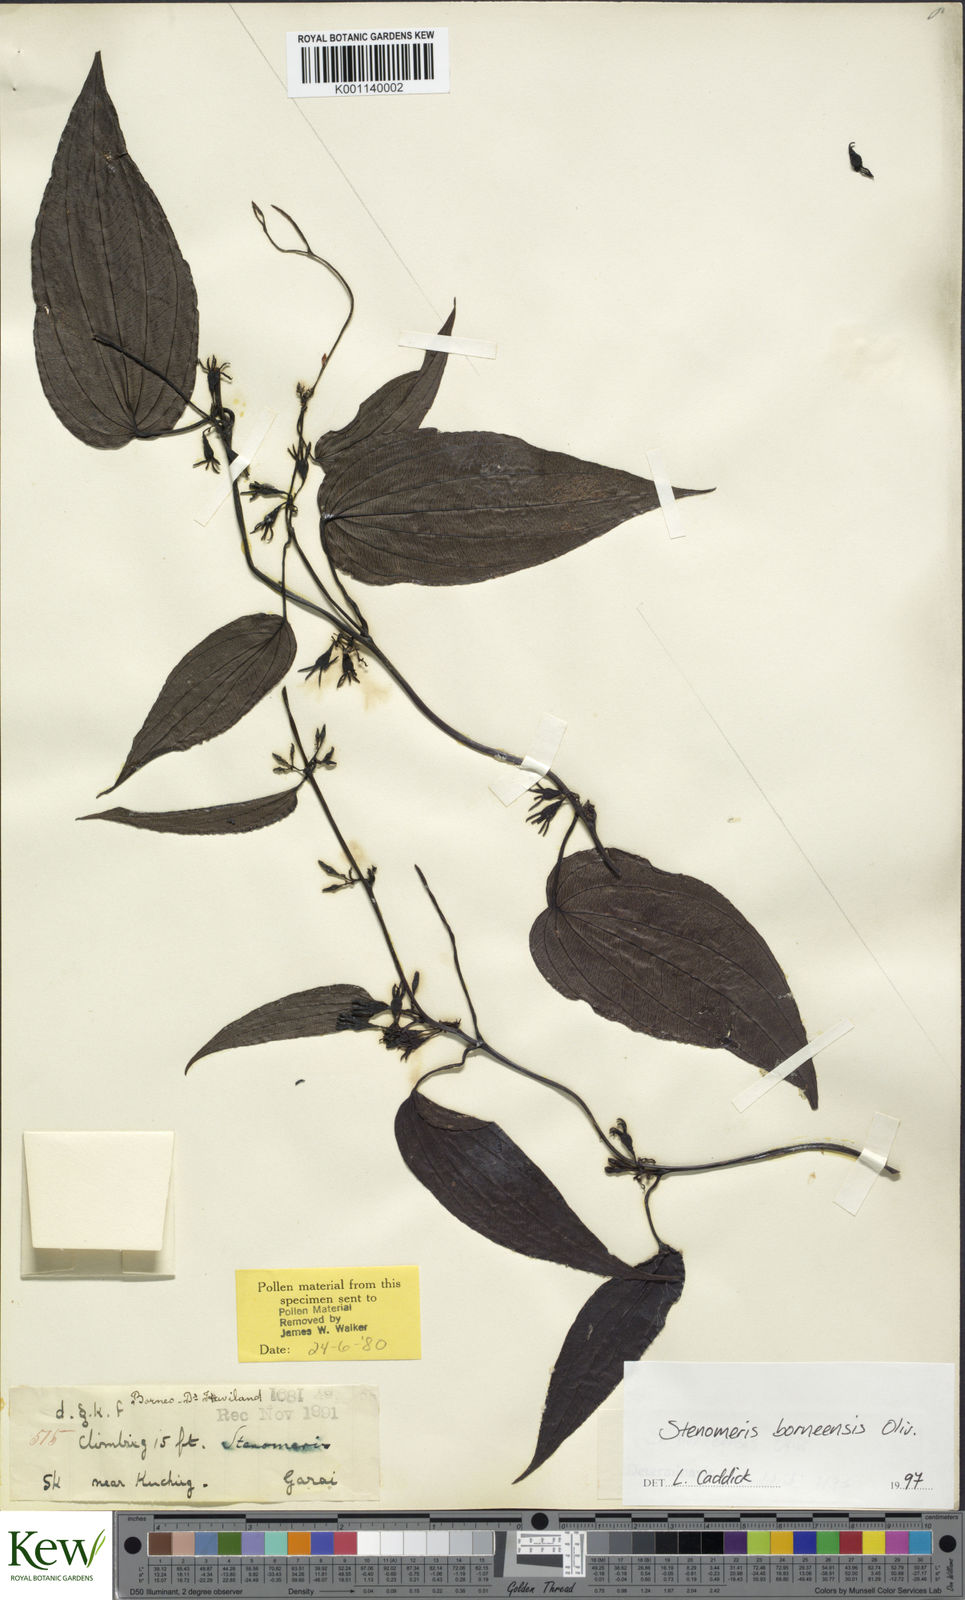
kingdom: Plantae
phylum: Tracheophyta
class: Liliopsida
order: Dioscoreales
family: Dioscoreaceae
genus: Stenomeris
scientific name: Stenomeris borneensis
